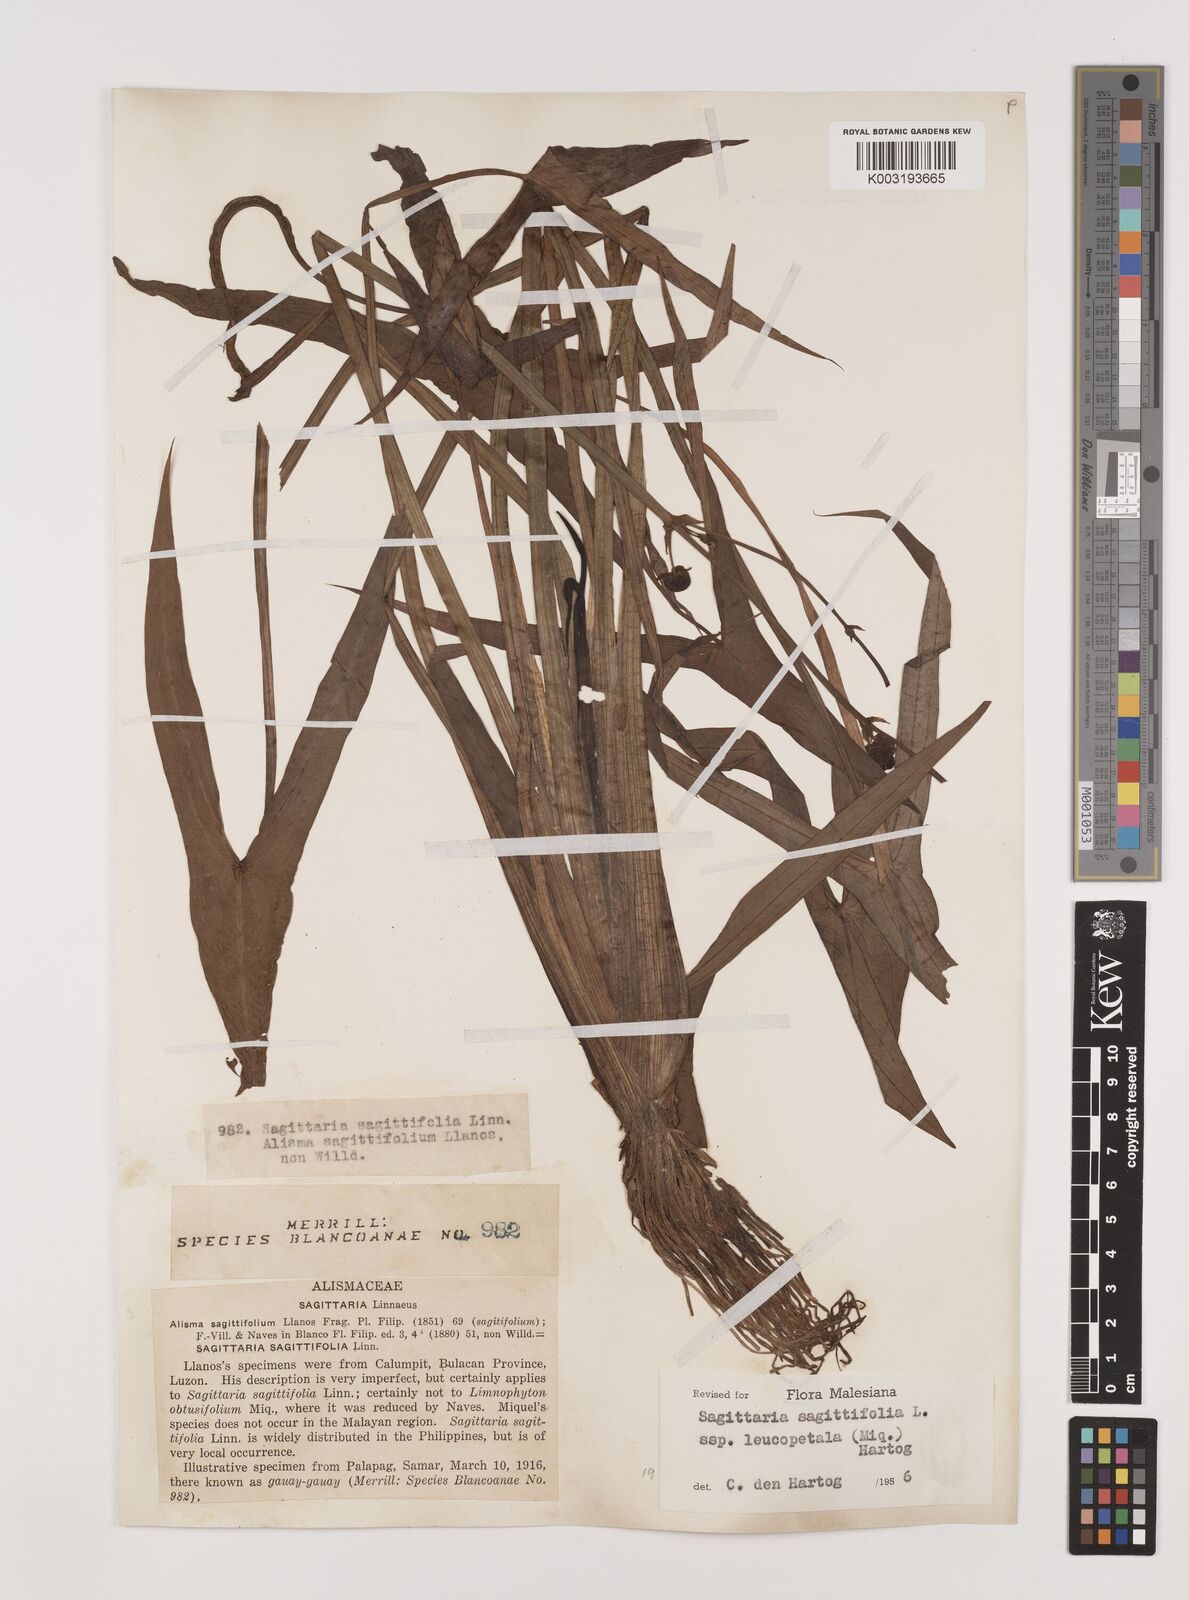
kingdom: Plantae
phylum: Tracheophyta
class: Liliopsida
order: Alismatales
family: Alismataceae
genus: Sagittaria
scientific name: Sagittaria sagittifolia
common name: Arrowhead
